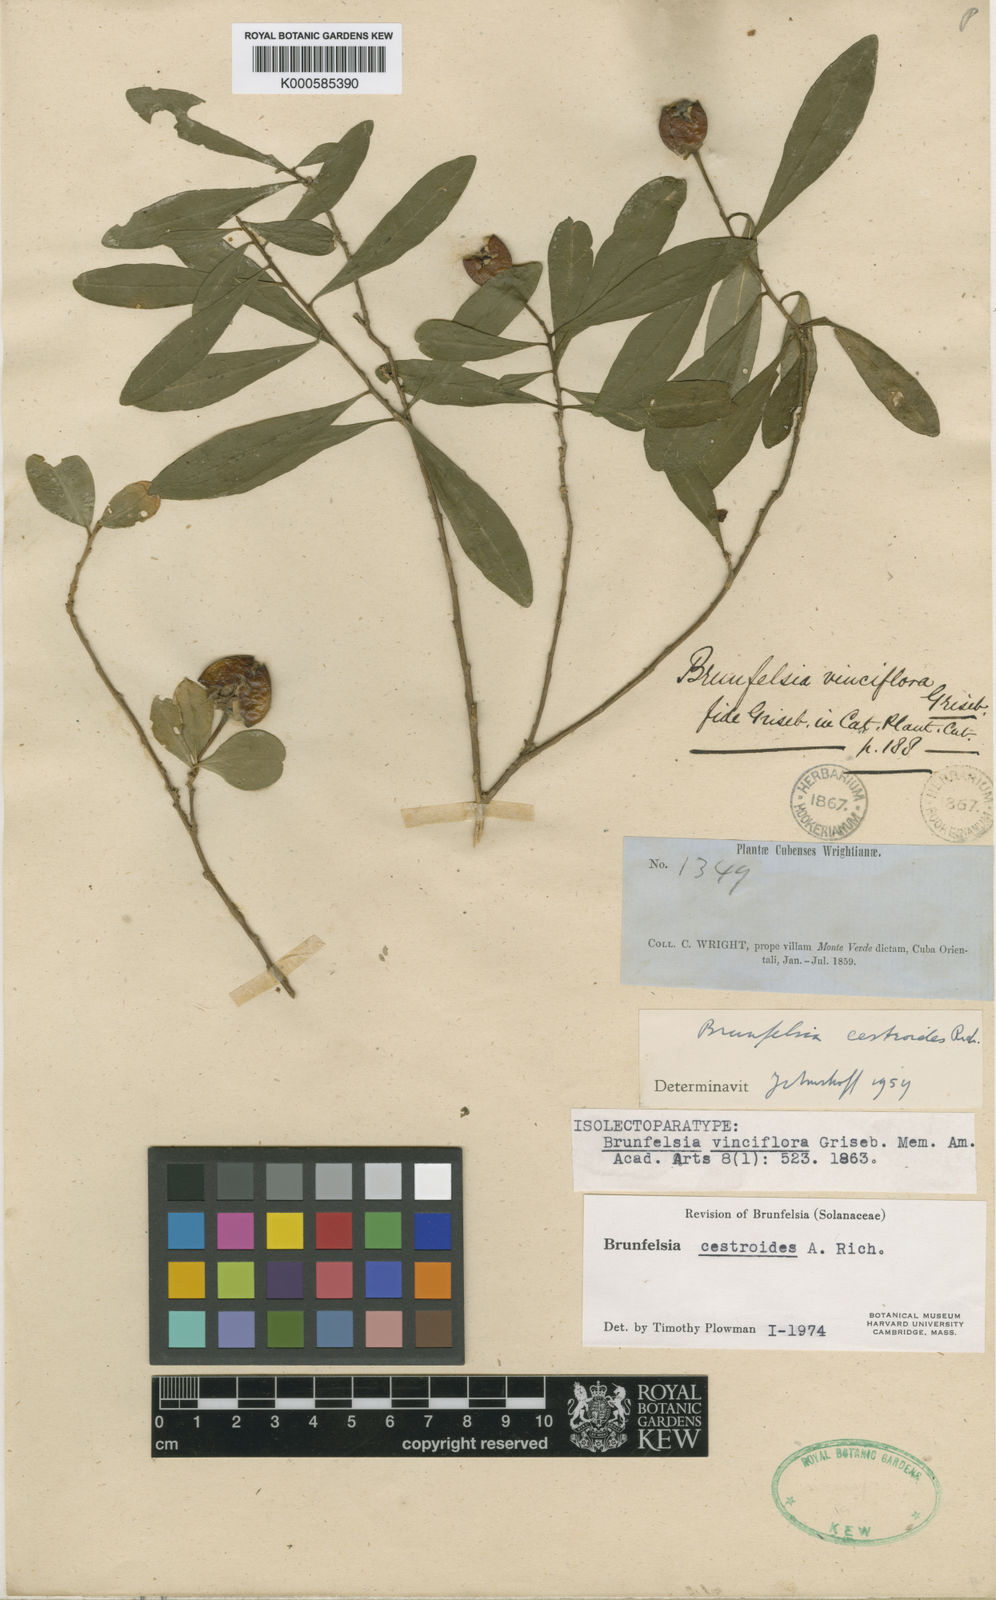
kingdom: Plantae
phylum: Tracheophyta
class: Magnoliopsida
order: Solanales
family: Solanaceae
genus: Brunfelsia
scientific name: Brunfelsia cestroides
